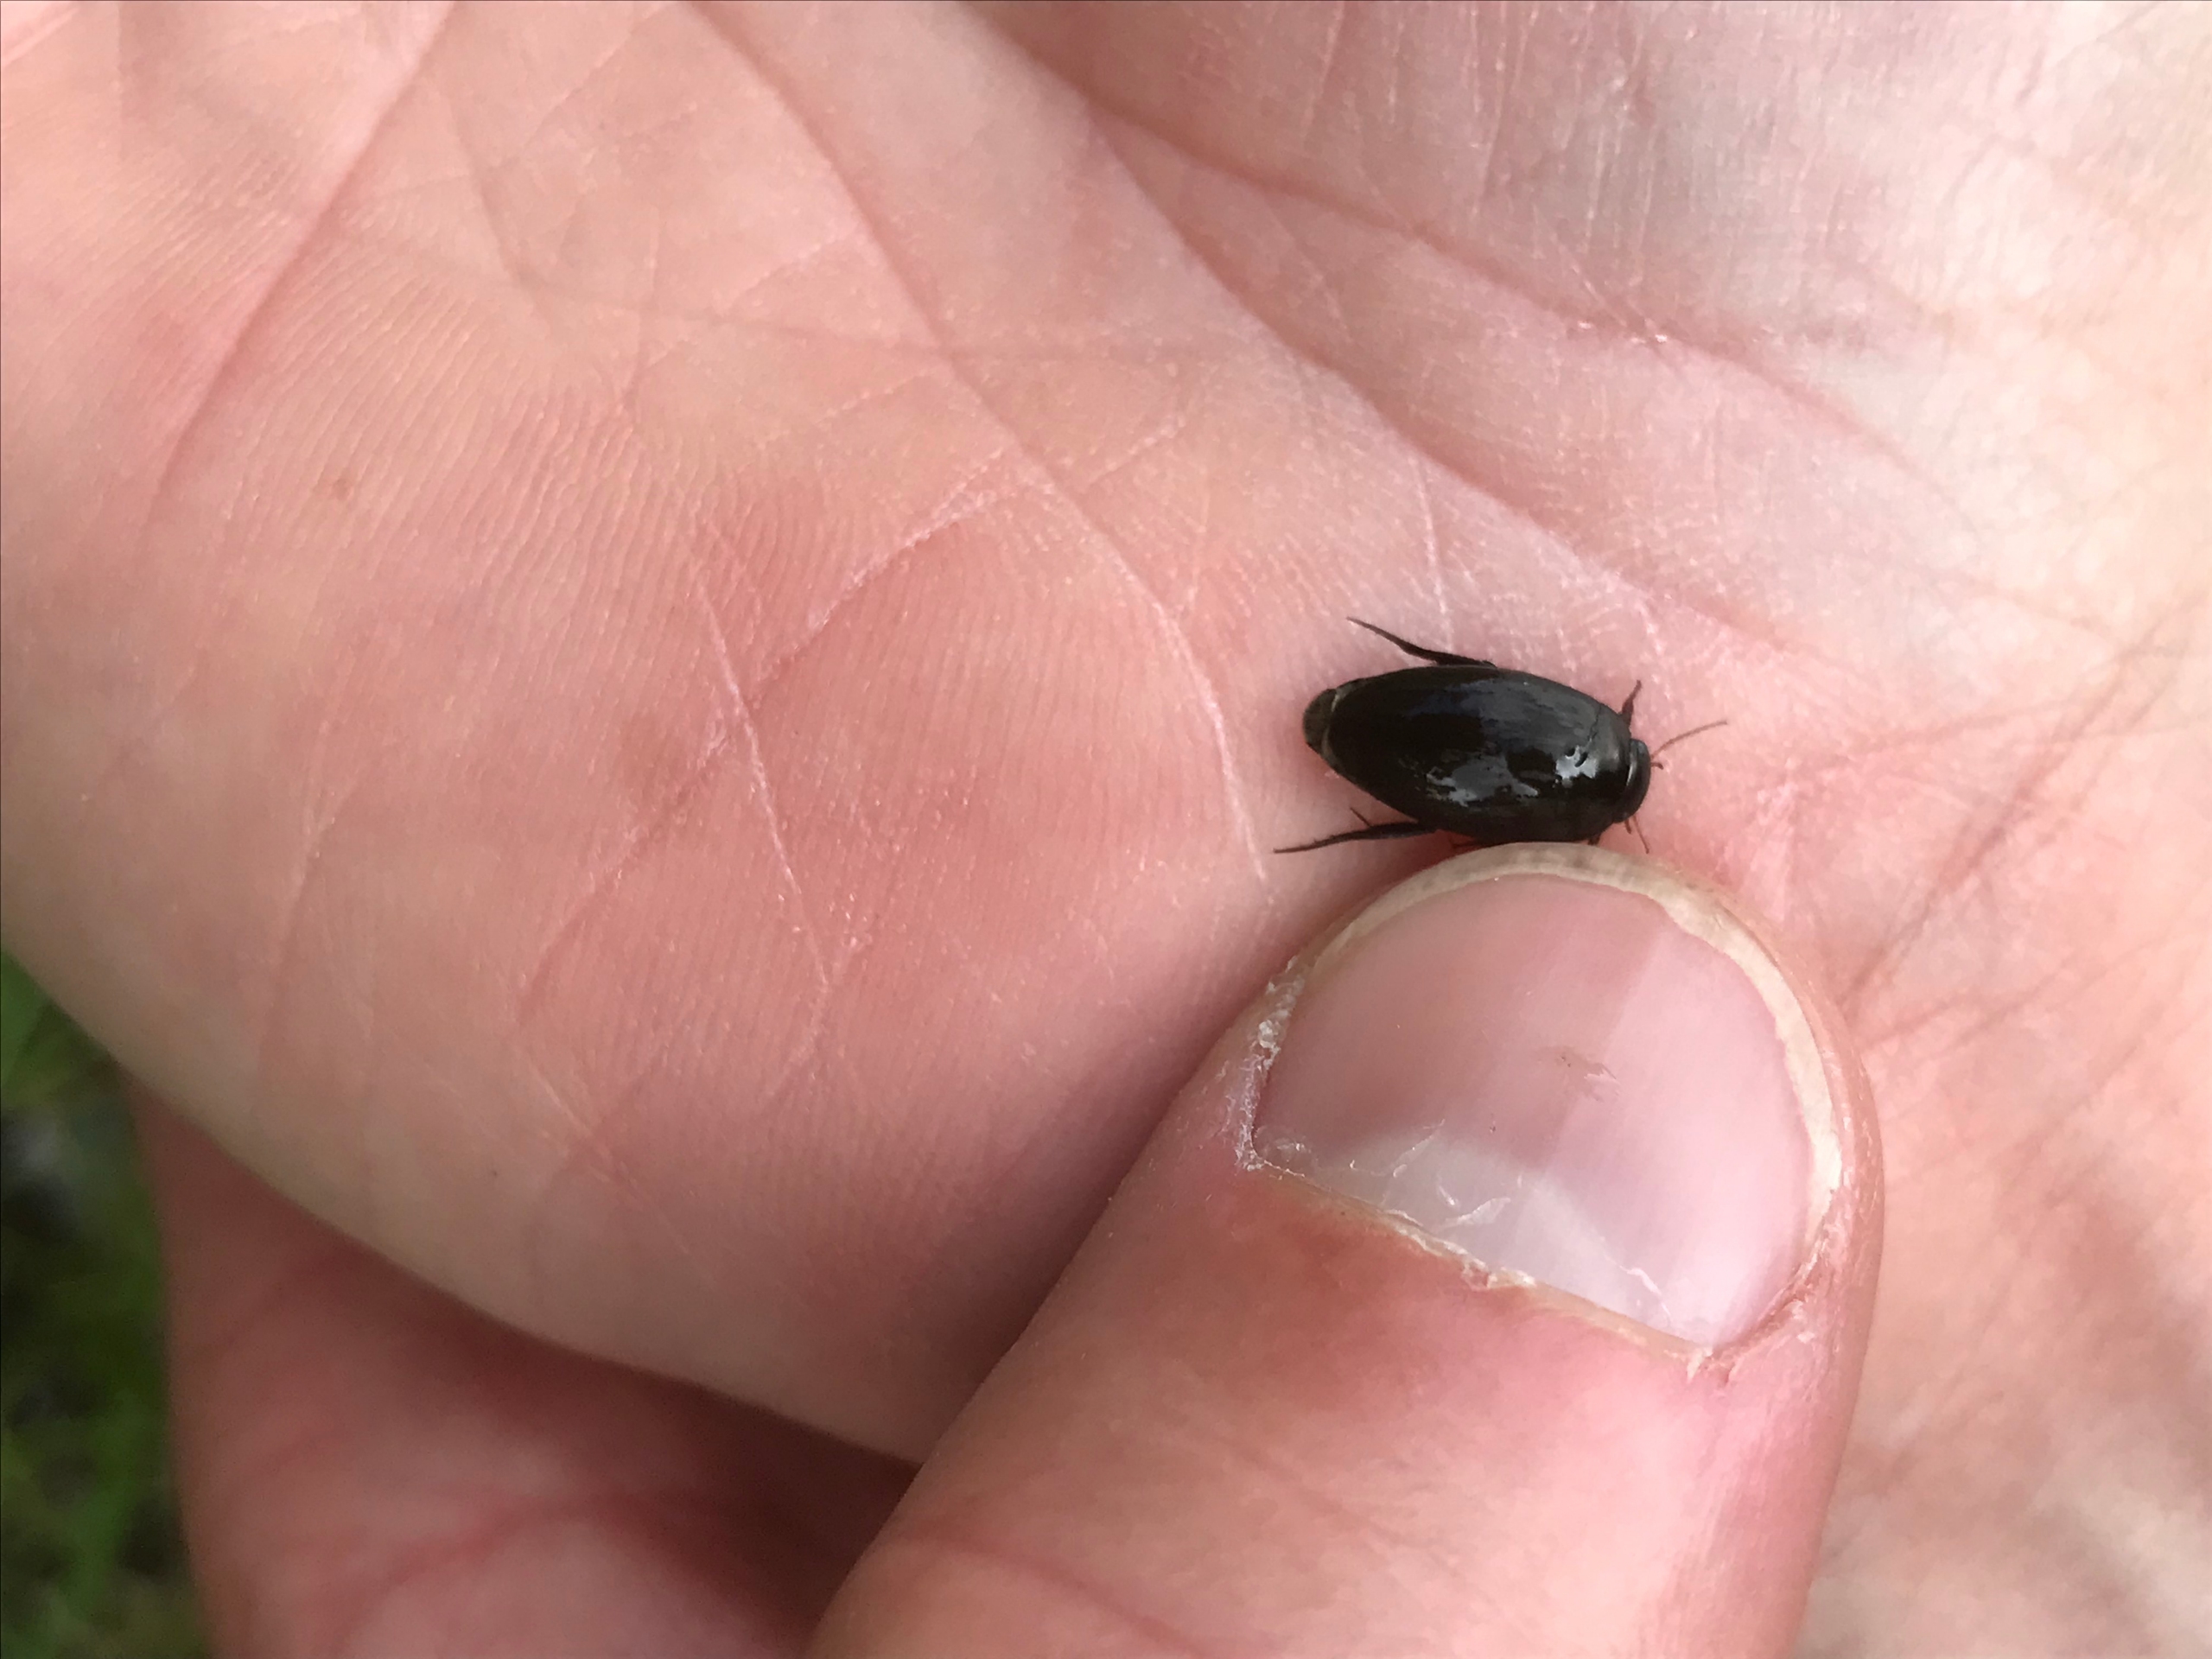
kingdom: Animalia
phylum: Arthropoda
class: Insecta
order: Coleoptera
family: Dytiscidae
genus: Agabus
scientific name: Agabus bipustulatus
